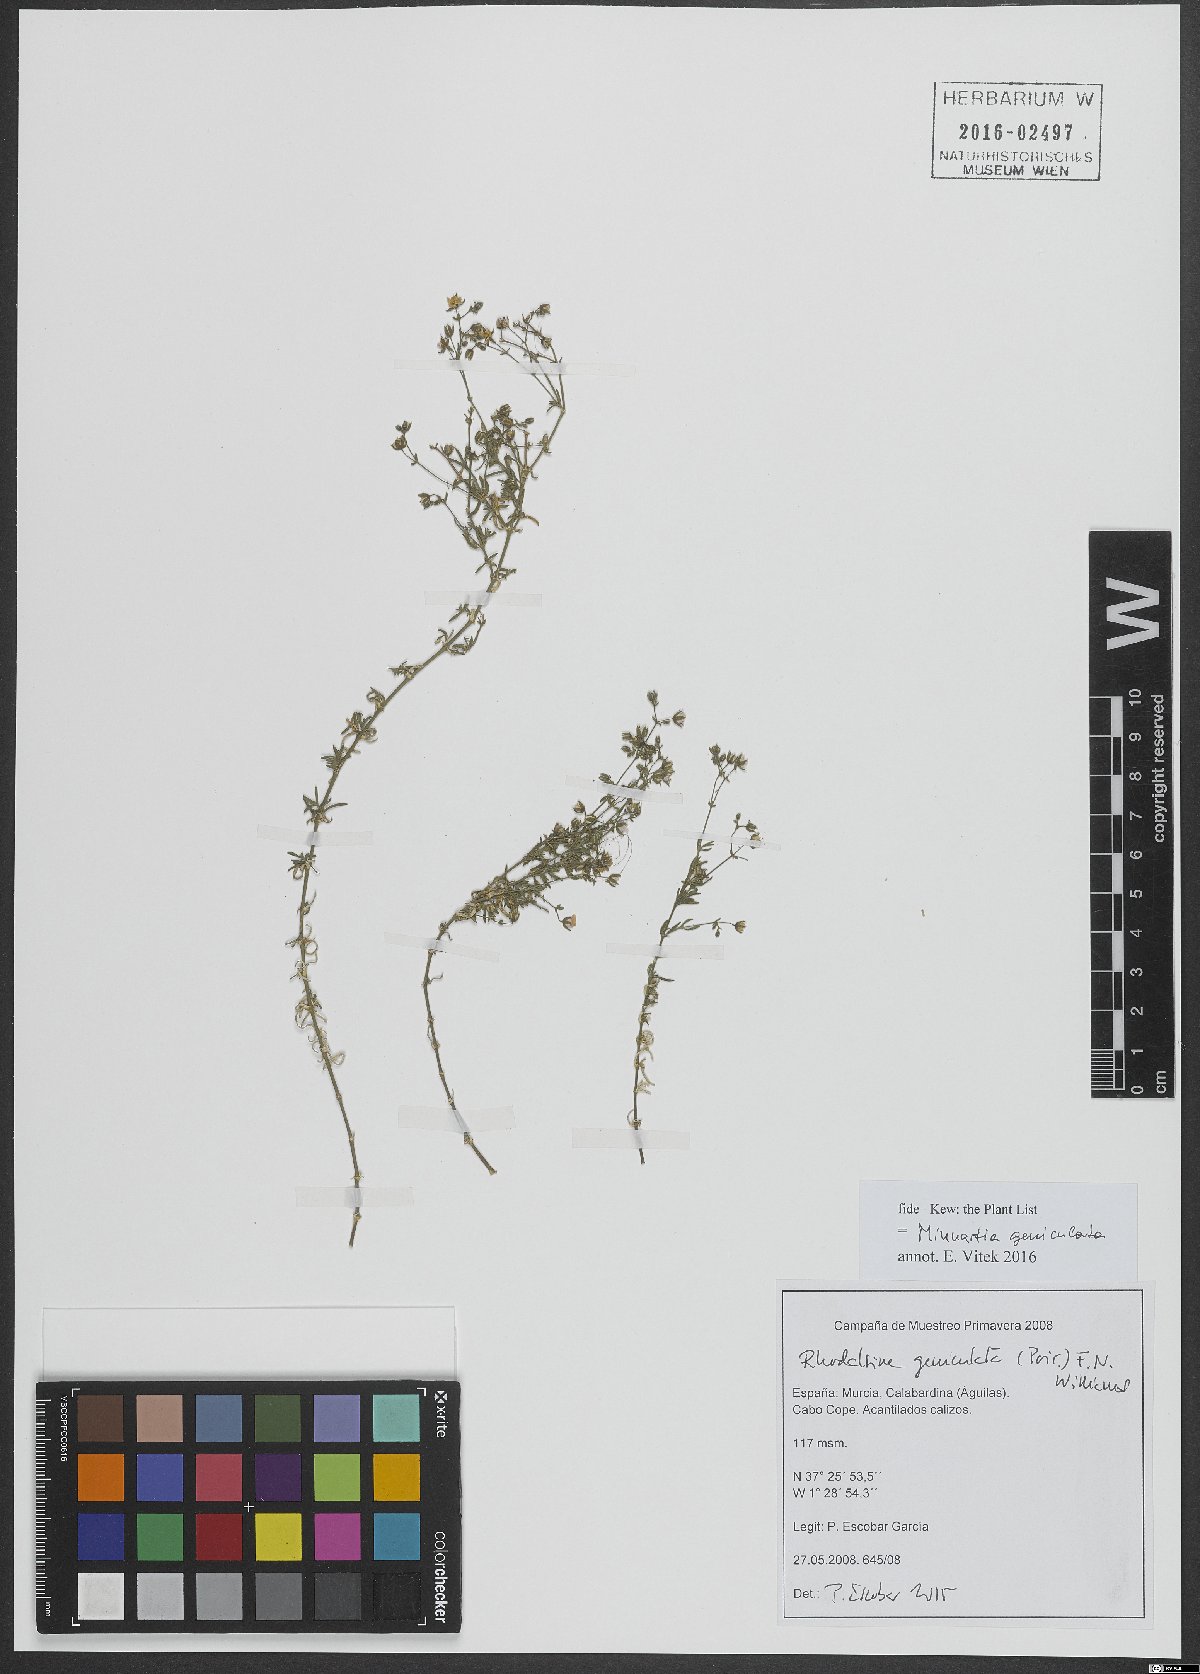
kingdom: Plantae
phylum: Tracheophyta
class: Magnoliopsida
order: Caryophyllales
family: Caryophyllaceae
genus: Rhodalsine
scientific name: Rhodalsine geniculata
